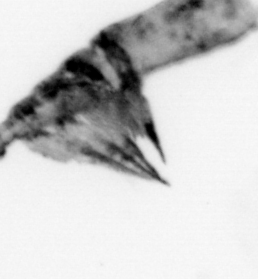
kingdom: Animalia
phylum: Arthropoda
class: Copepoda
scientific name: Copepoda
